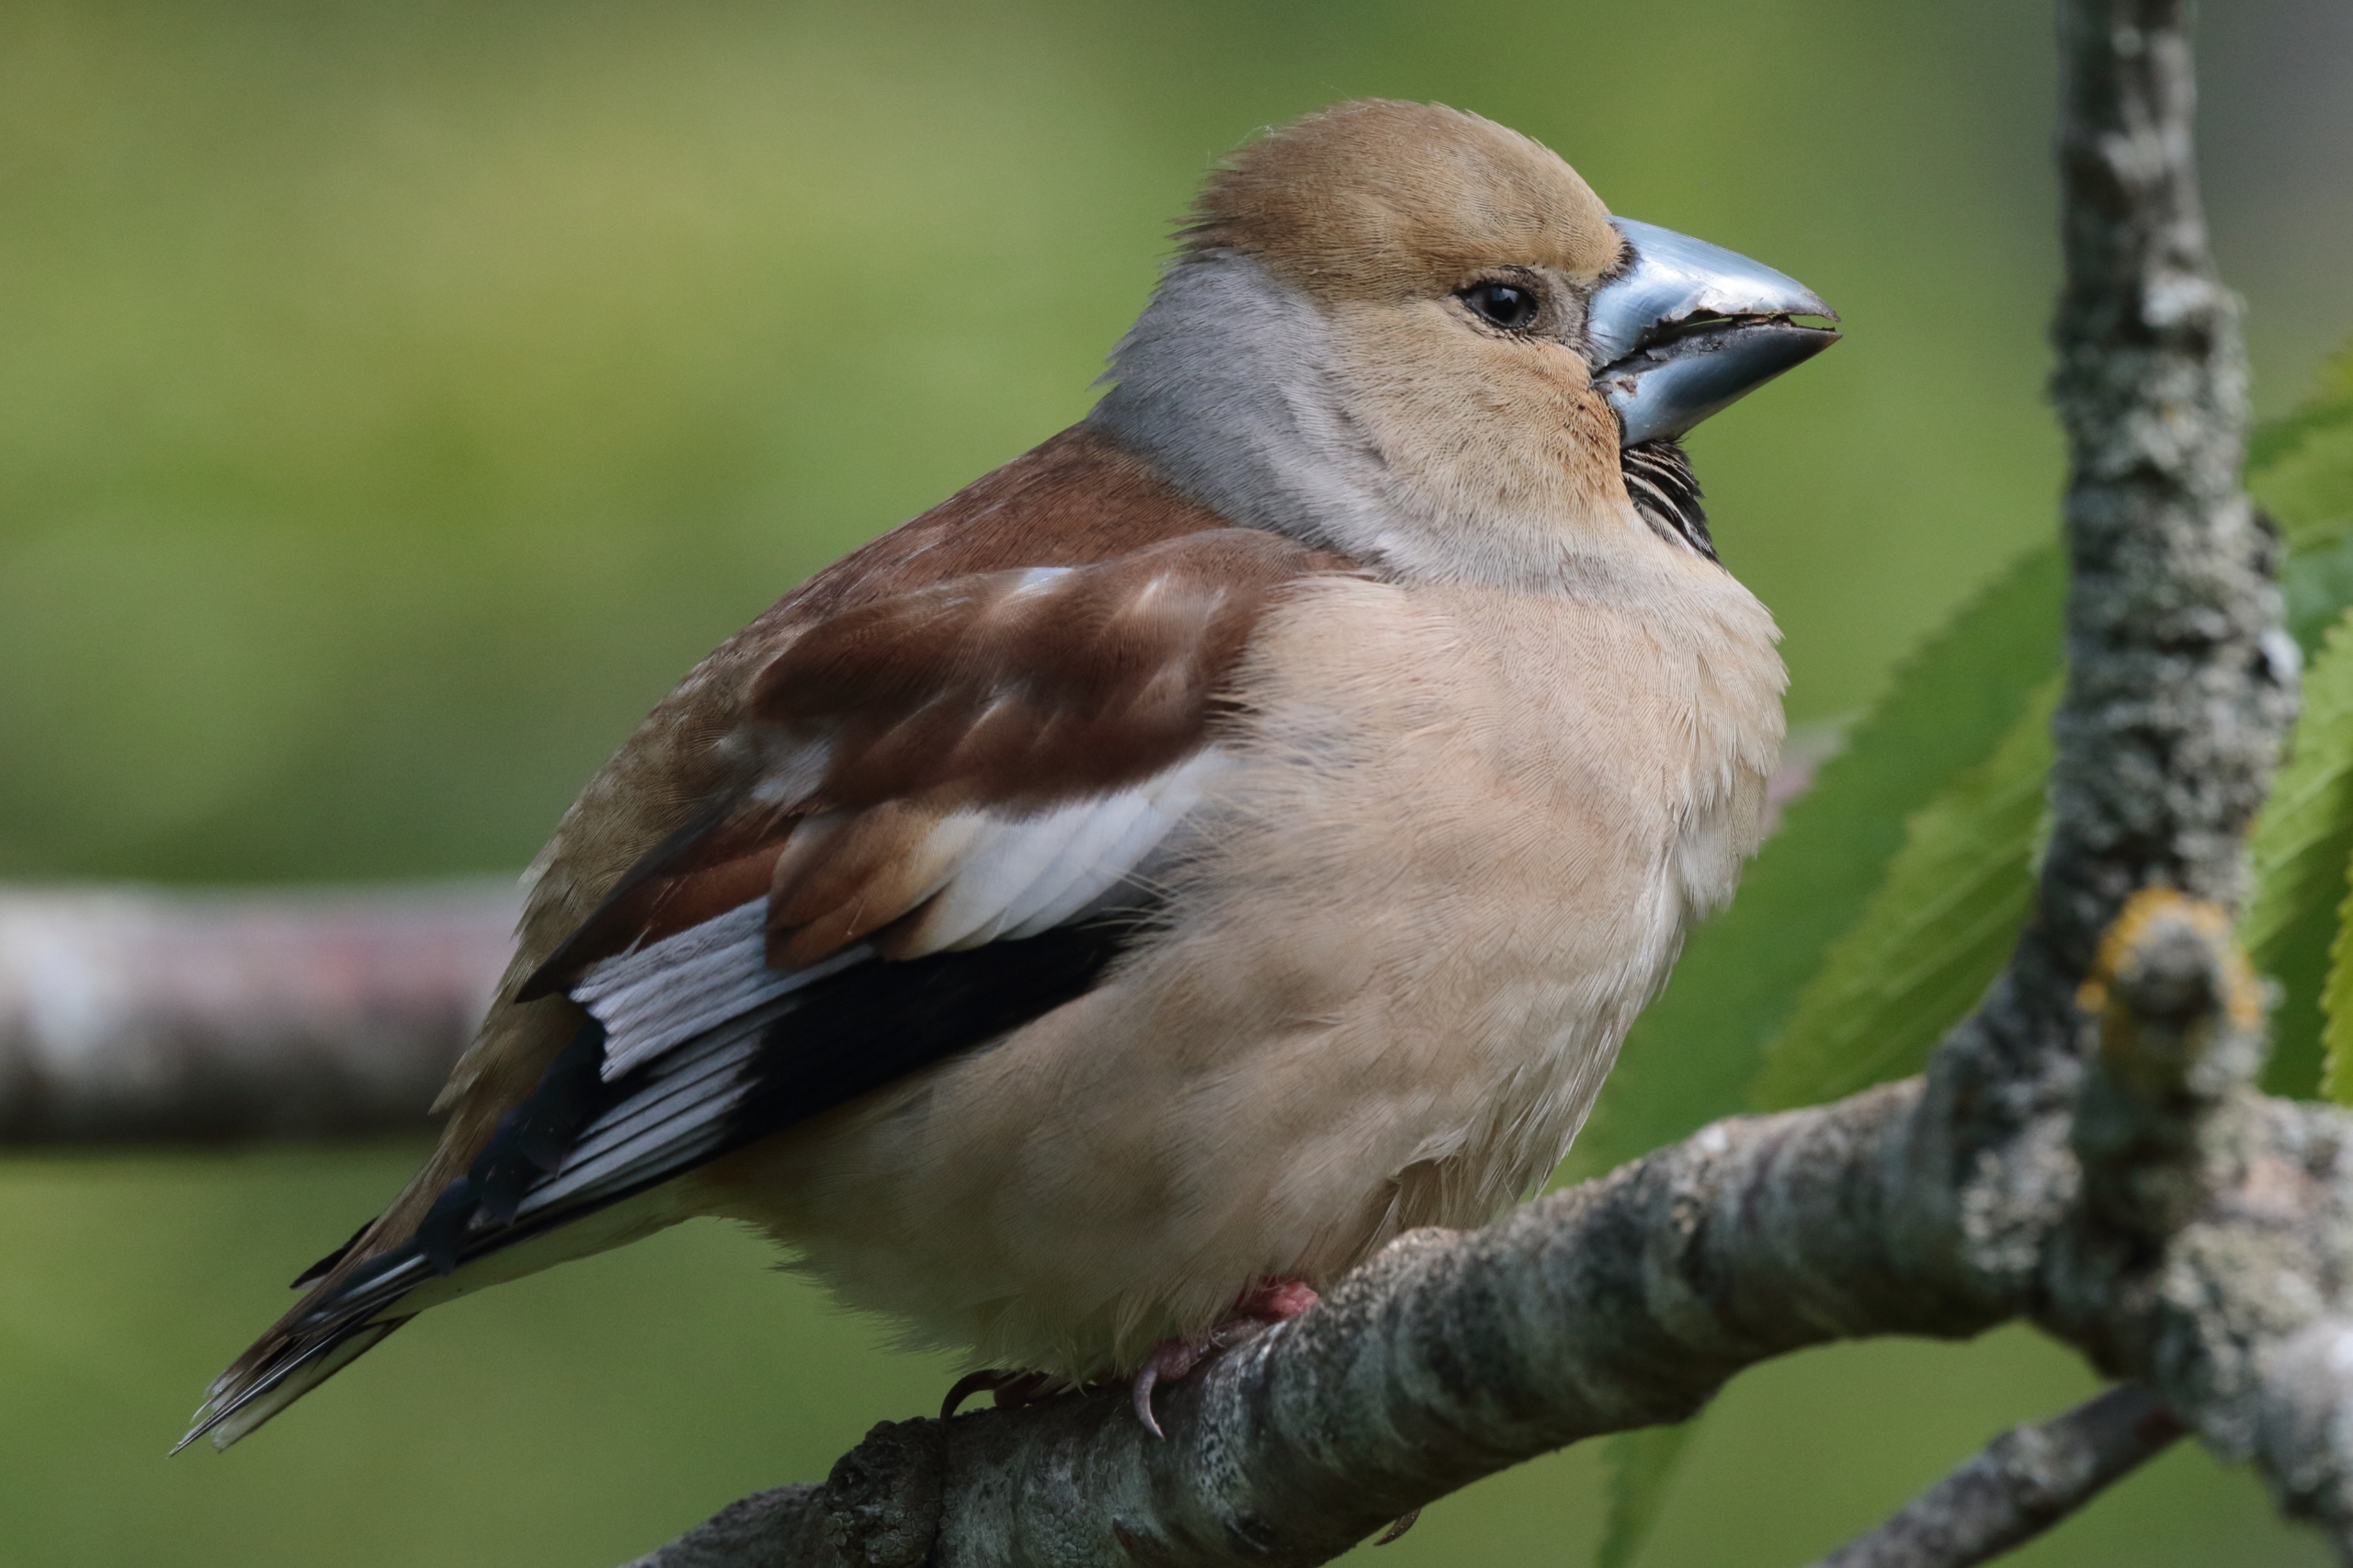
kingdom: Animalia
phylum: Chordata
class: Aves
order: Passeriformes
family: Fringillidae
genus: Coccothraustes
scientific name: Coccothraustes coccothraustes
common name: Kernebider
